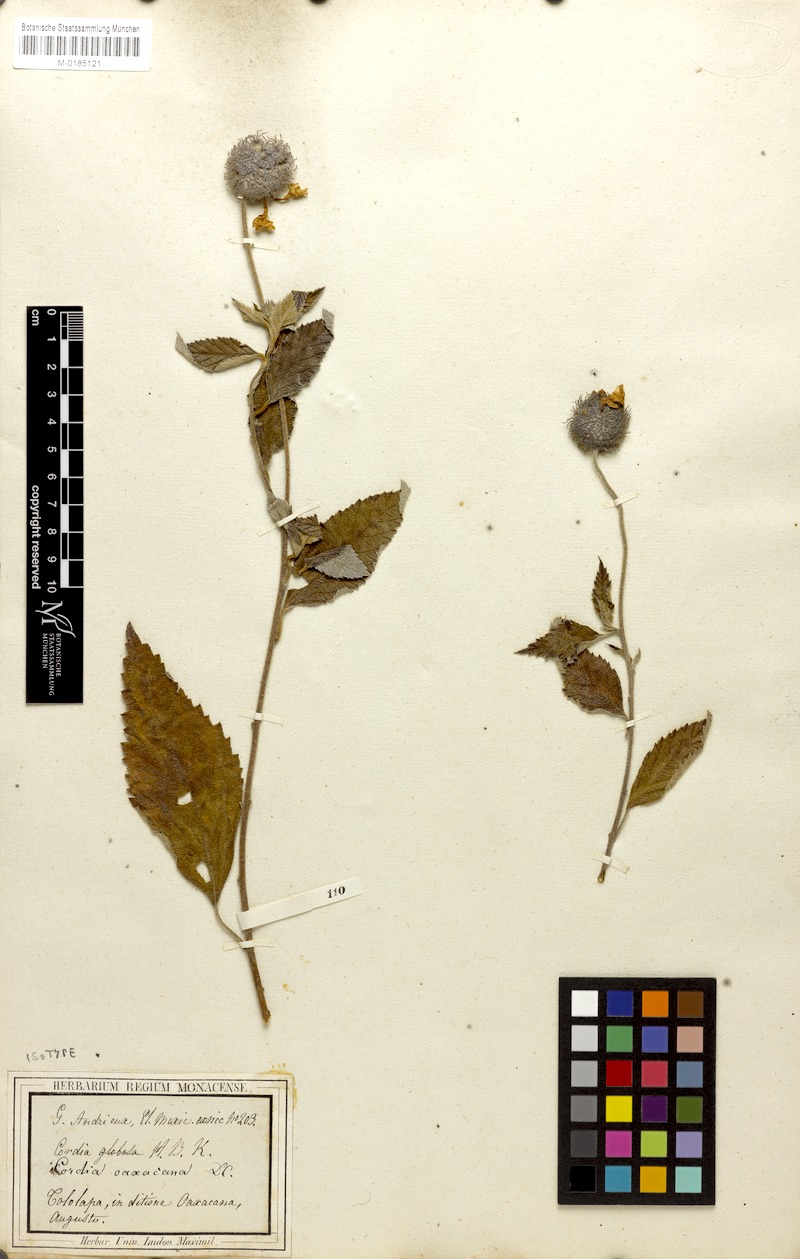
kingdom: Plantae
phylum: Tracheophyta
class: Magnoliopsida
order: Boraginales
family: Cordiaceae
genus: Varronia
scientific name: Varronia oaxacana
